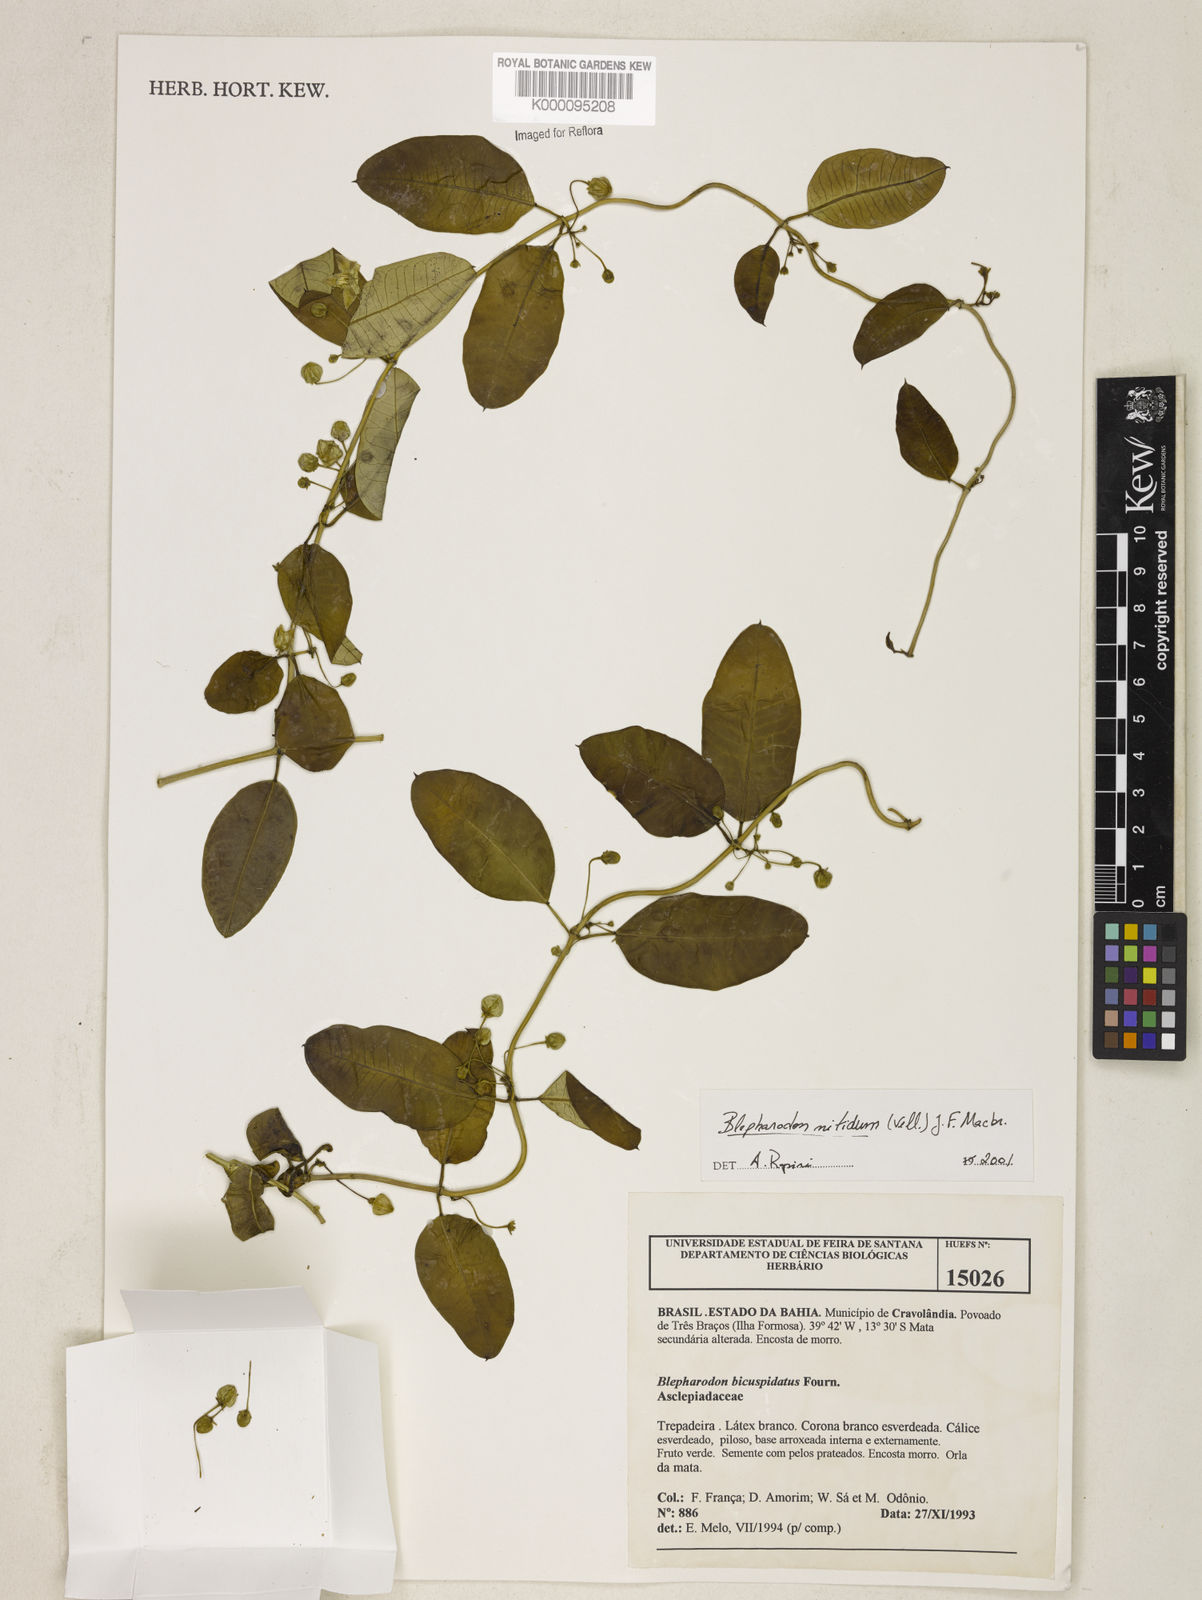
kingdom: Plantae
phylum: Tracheophyta
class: Magnoliopsida
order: Gentianales
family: Apocynaceae
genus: Blepharodon
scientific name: Blepharodon pictum
